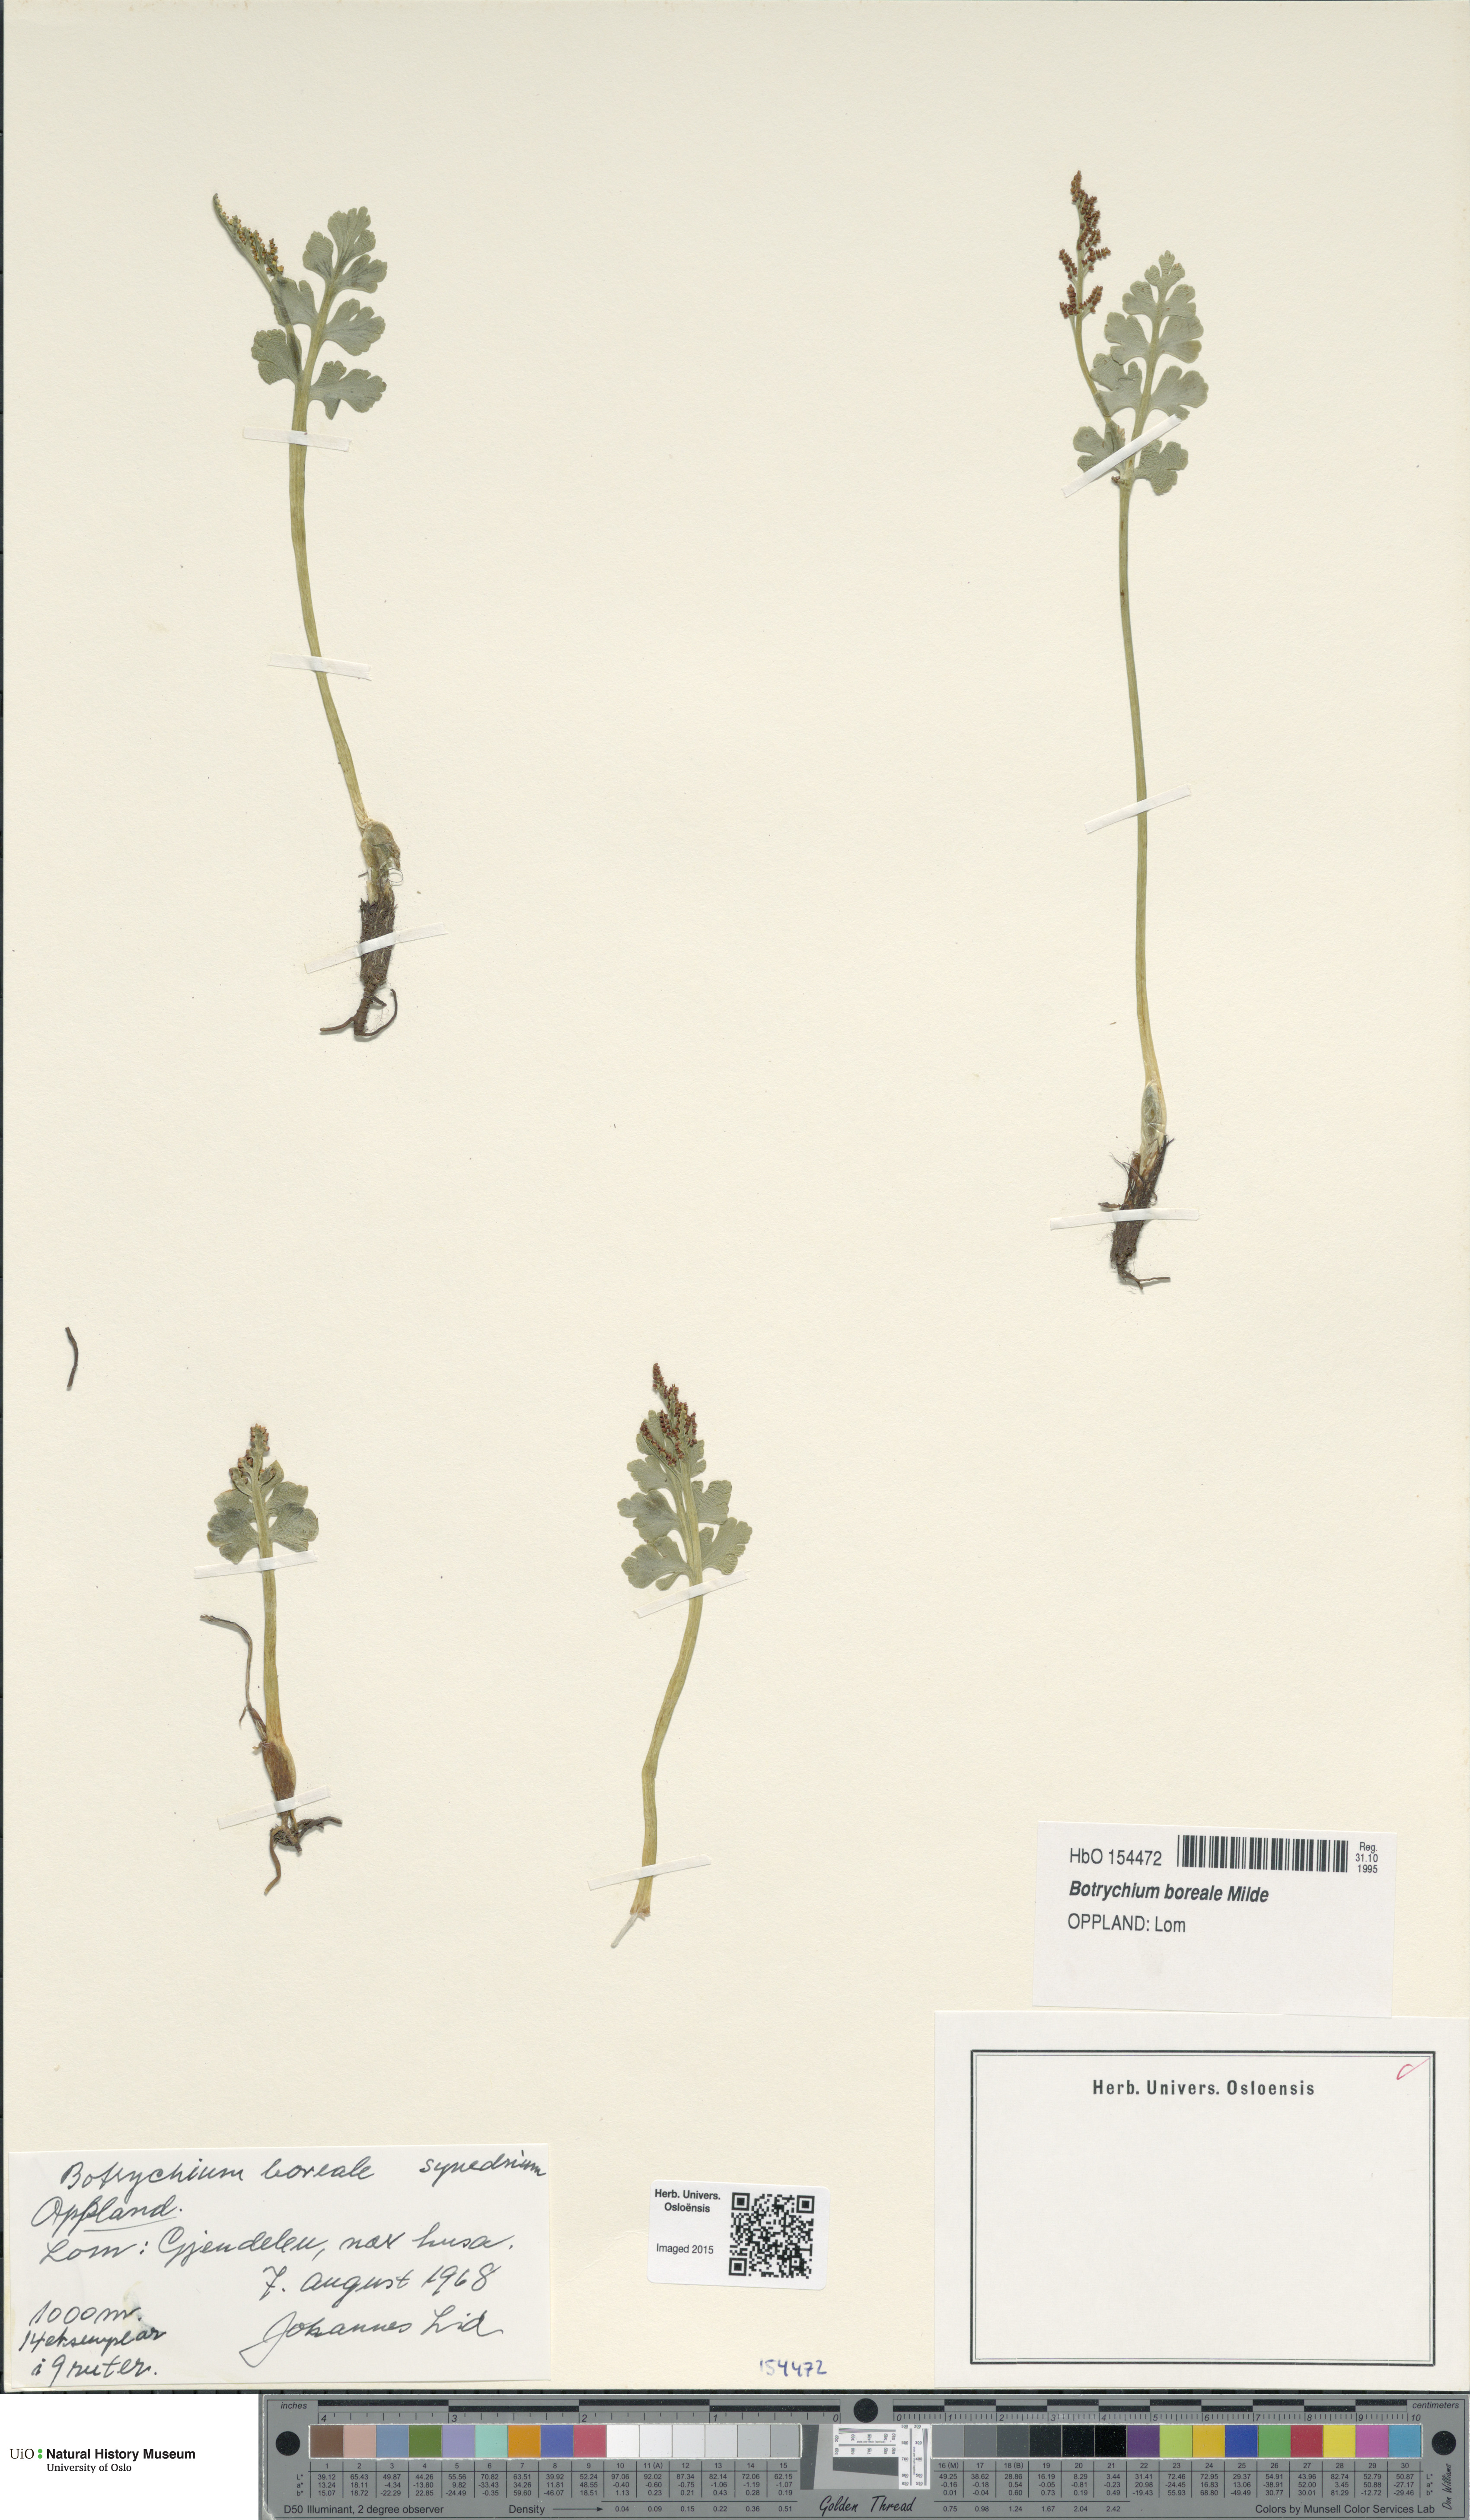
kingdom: Plantae
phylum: Tracheophyta
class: Polypodiopsida
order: Ophioglossales
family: Ophioglossaceae
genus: Botrychium
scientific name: Botrychium boreale
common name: Boreal moonwort
